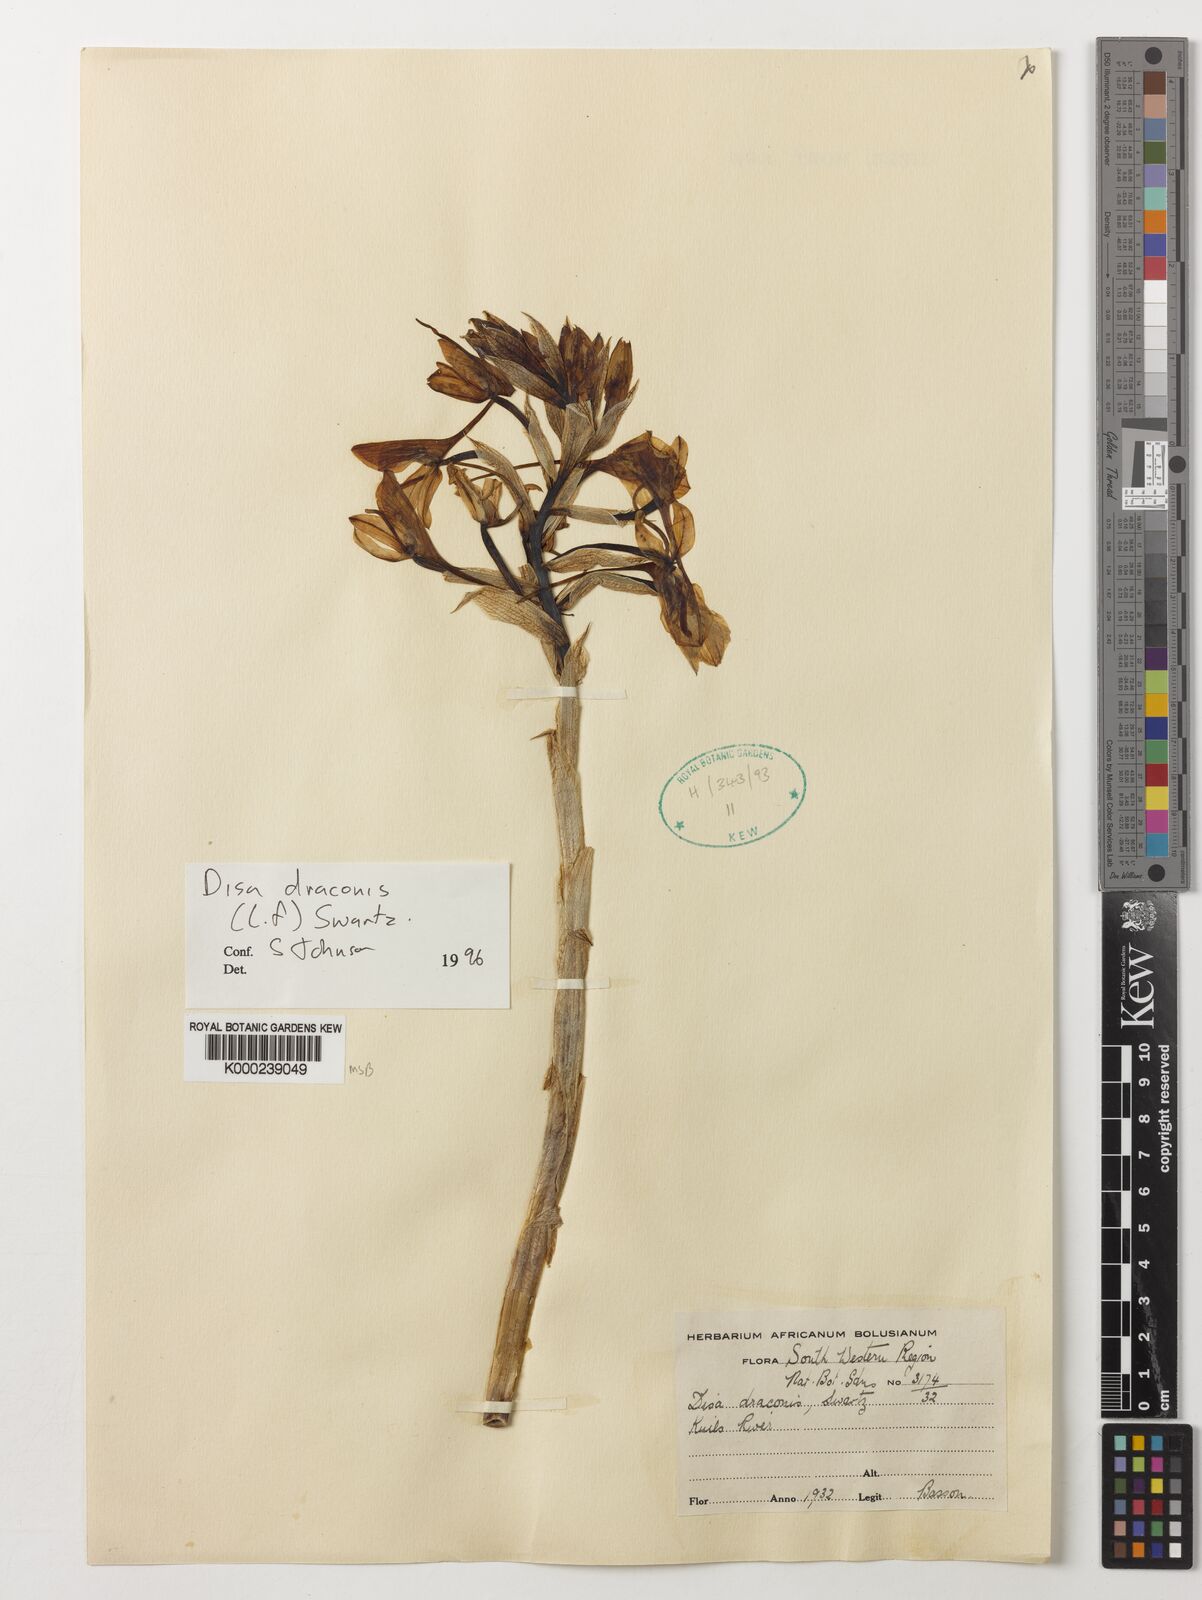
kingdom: Plantae
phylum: Tracheophyta
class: Liliopsida
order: Asparagales
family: Orchidaceae
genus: Disa
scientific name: Disa draconis
